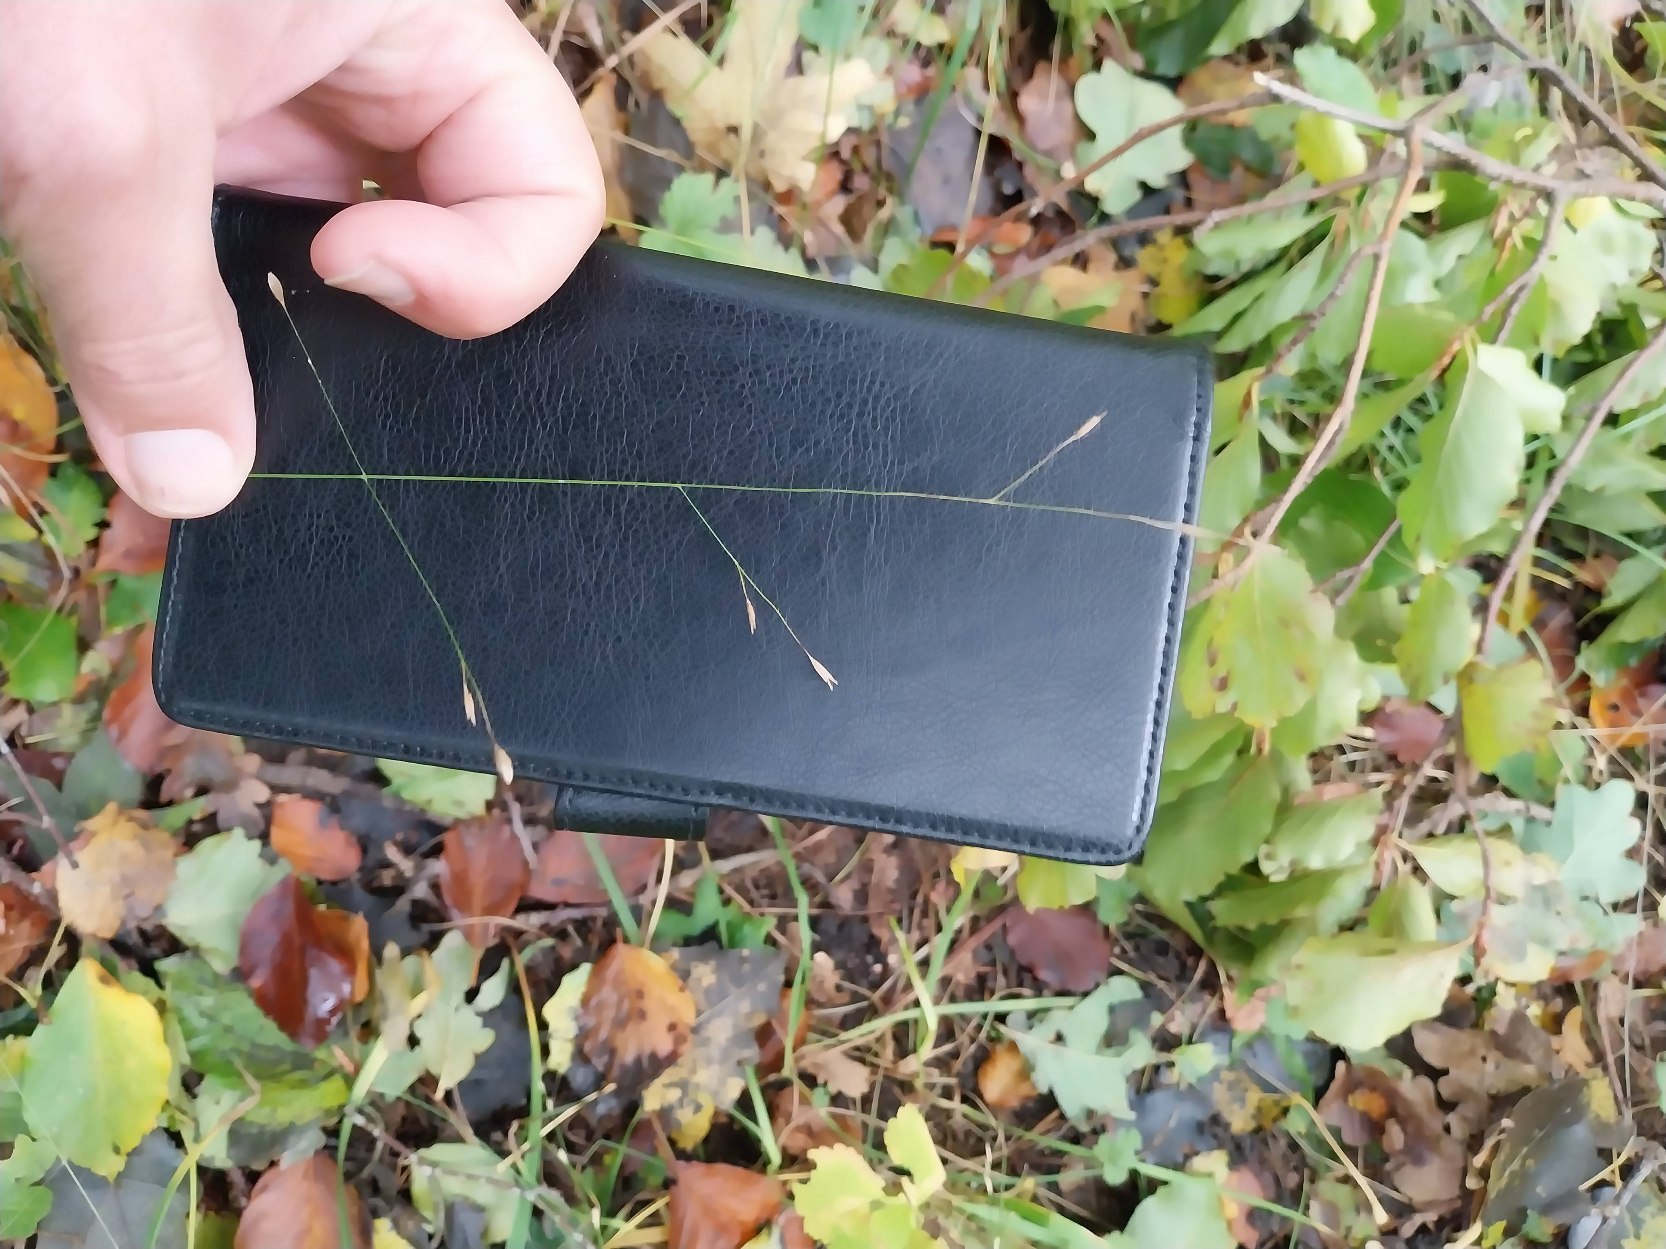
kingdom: Plantae
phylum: Tracheophyta
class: Liliopsida
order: Poales
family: Poaceae
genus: Melica
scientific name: Melica uniflora
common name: Enblomstret flitteraks
